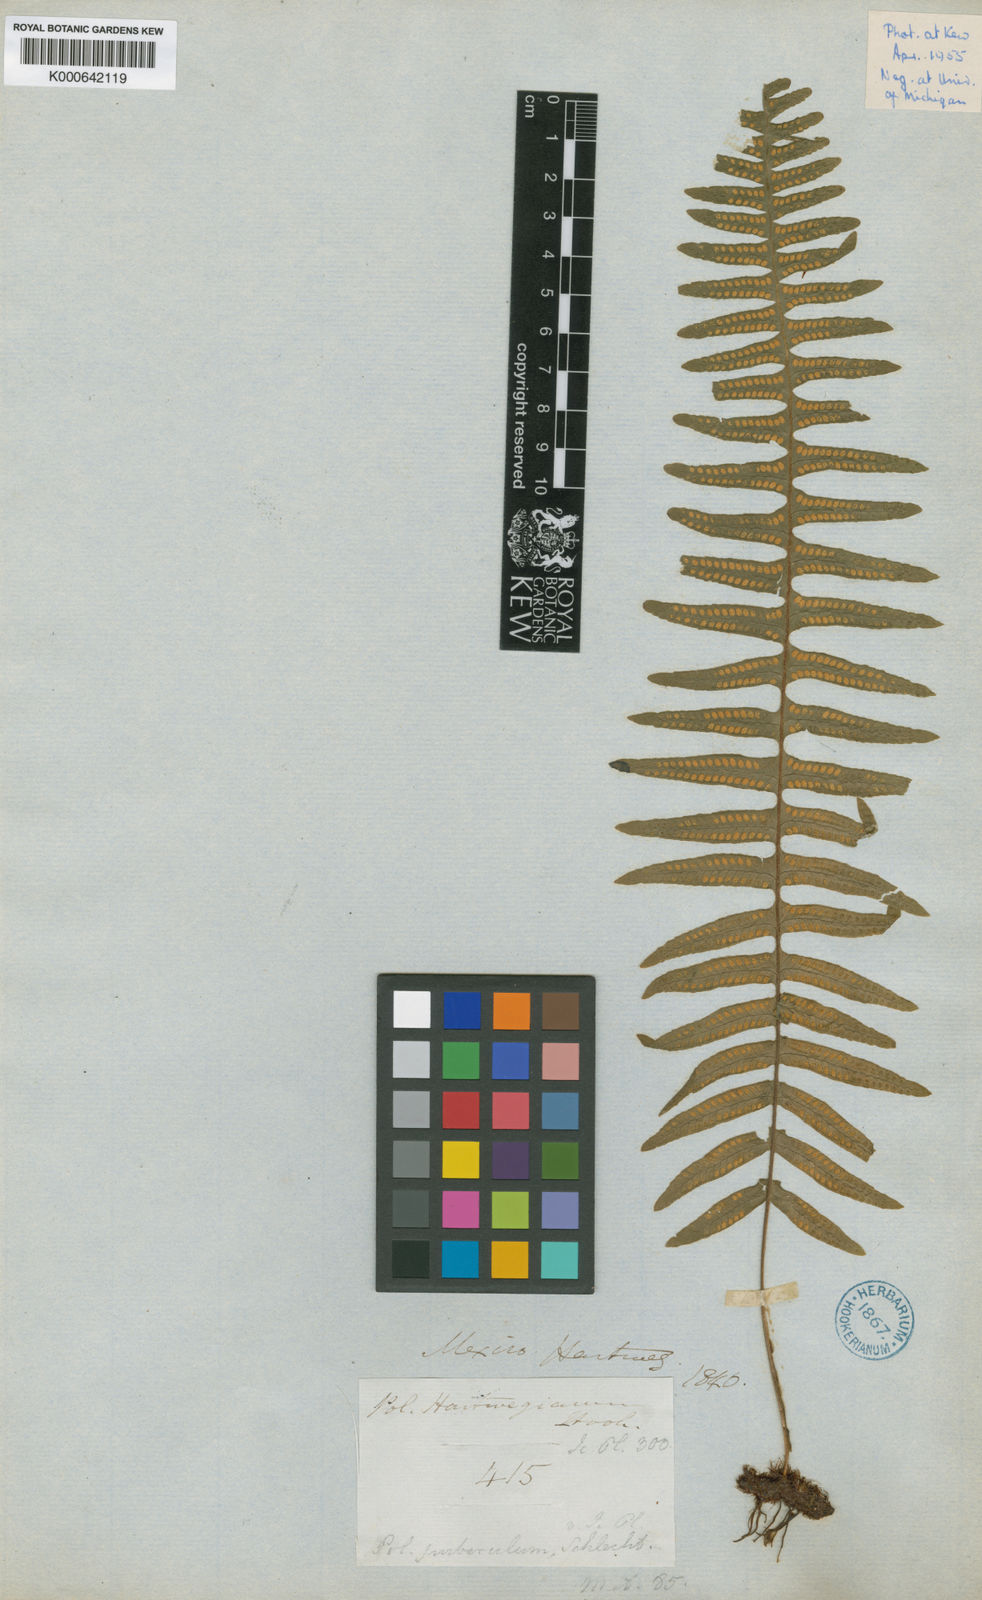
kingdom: Plantae
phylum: Tracheophyta
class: Polypodiopsida
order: Polypodiales
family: Polypodiaceae
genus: Pecluma
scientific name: Pecluma hartwegiana
